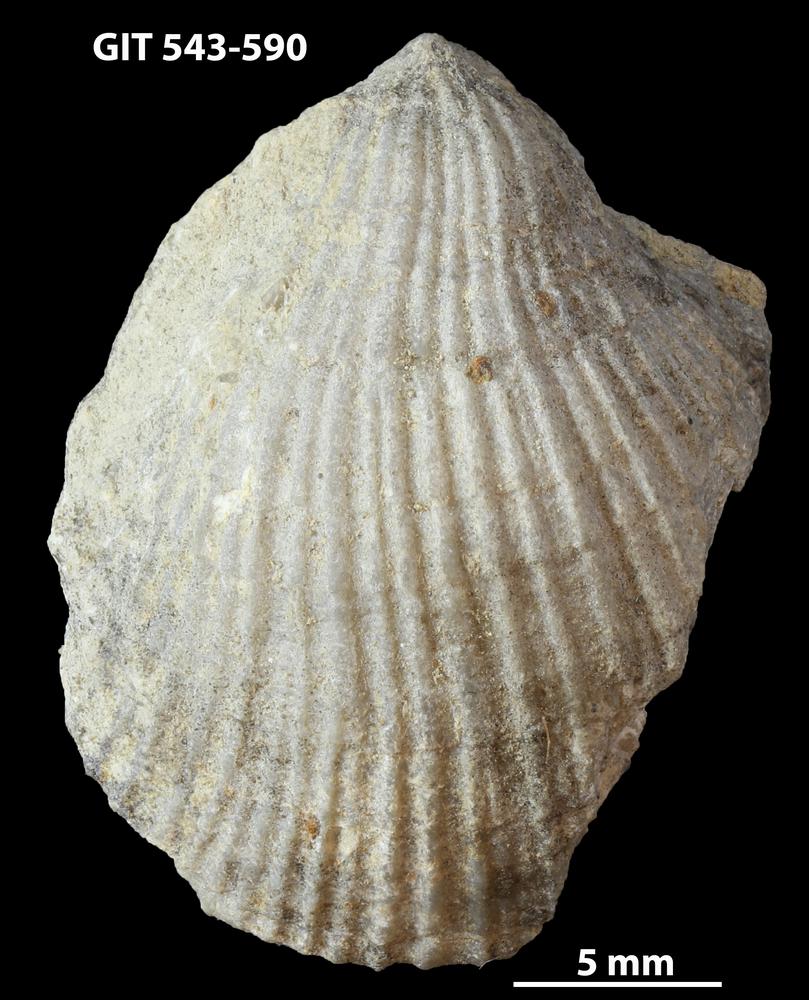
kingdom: Animalia
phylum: Brachiopoda
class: Rhynchonellata
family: Clitambonitidae
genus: Vellamo
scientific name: Vellamo Orthis verneuili
